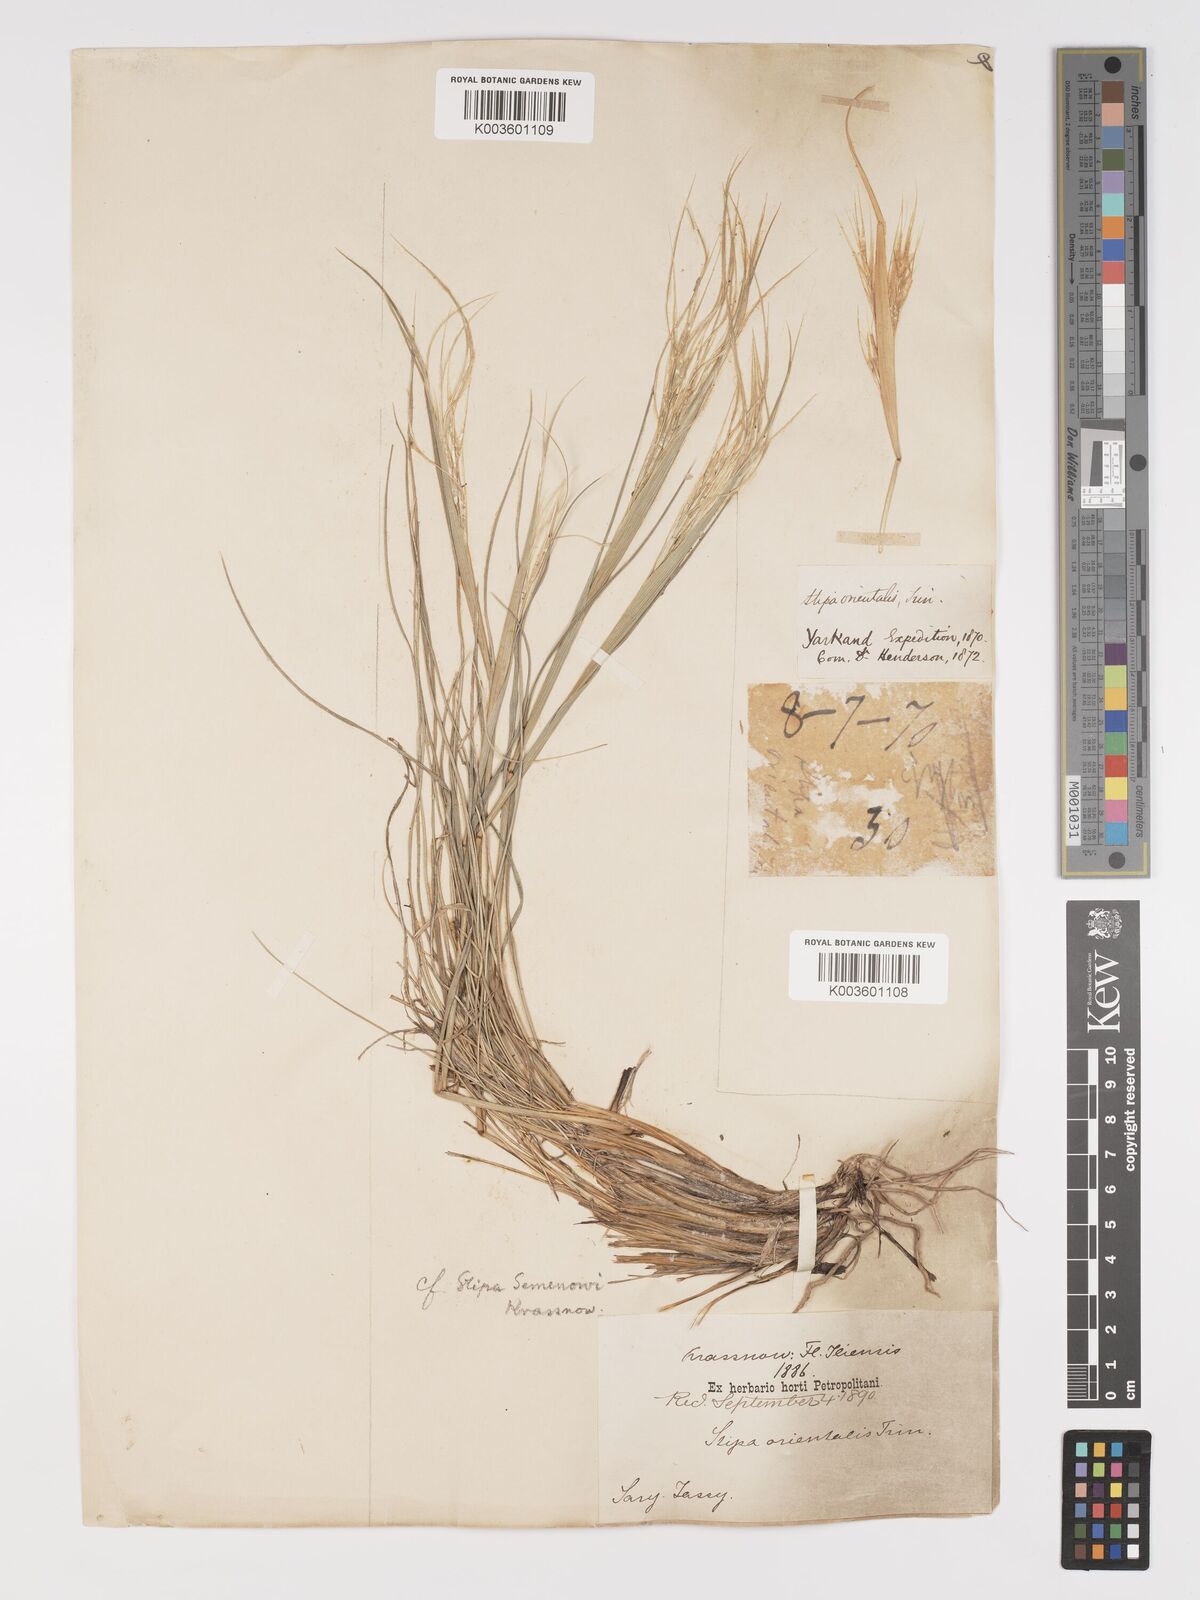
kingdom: Plantae
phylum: Tracheophyta
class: Liliopsida
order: Poales
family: Poaceae
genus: Stipa
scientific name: Stipa orientalis
